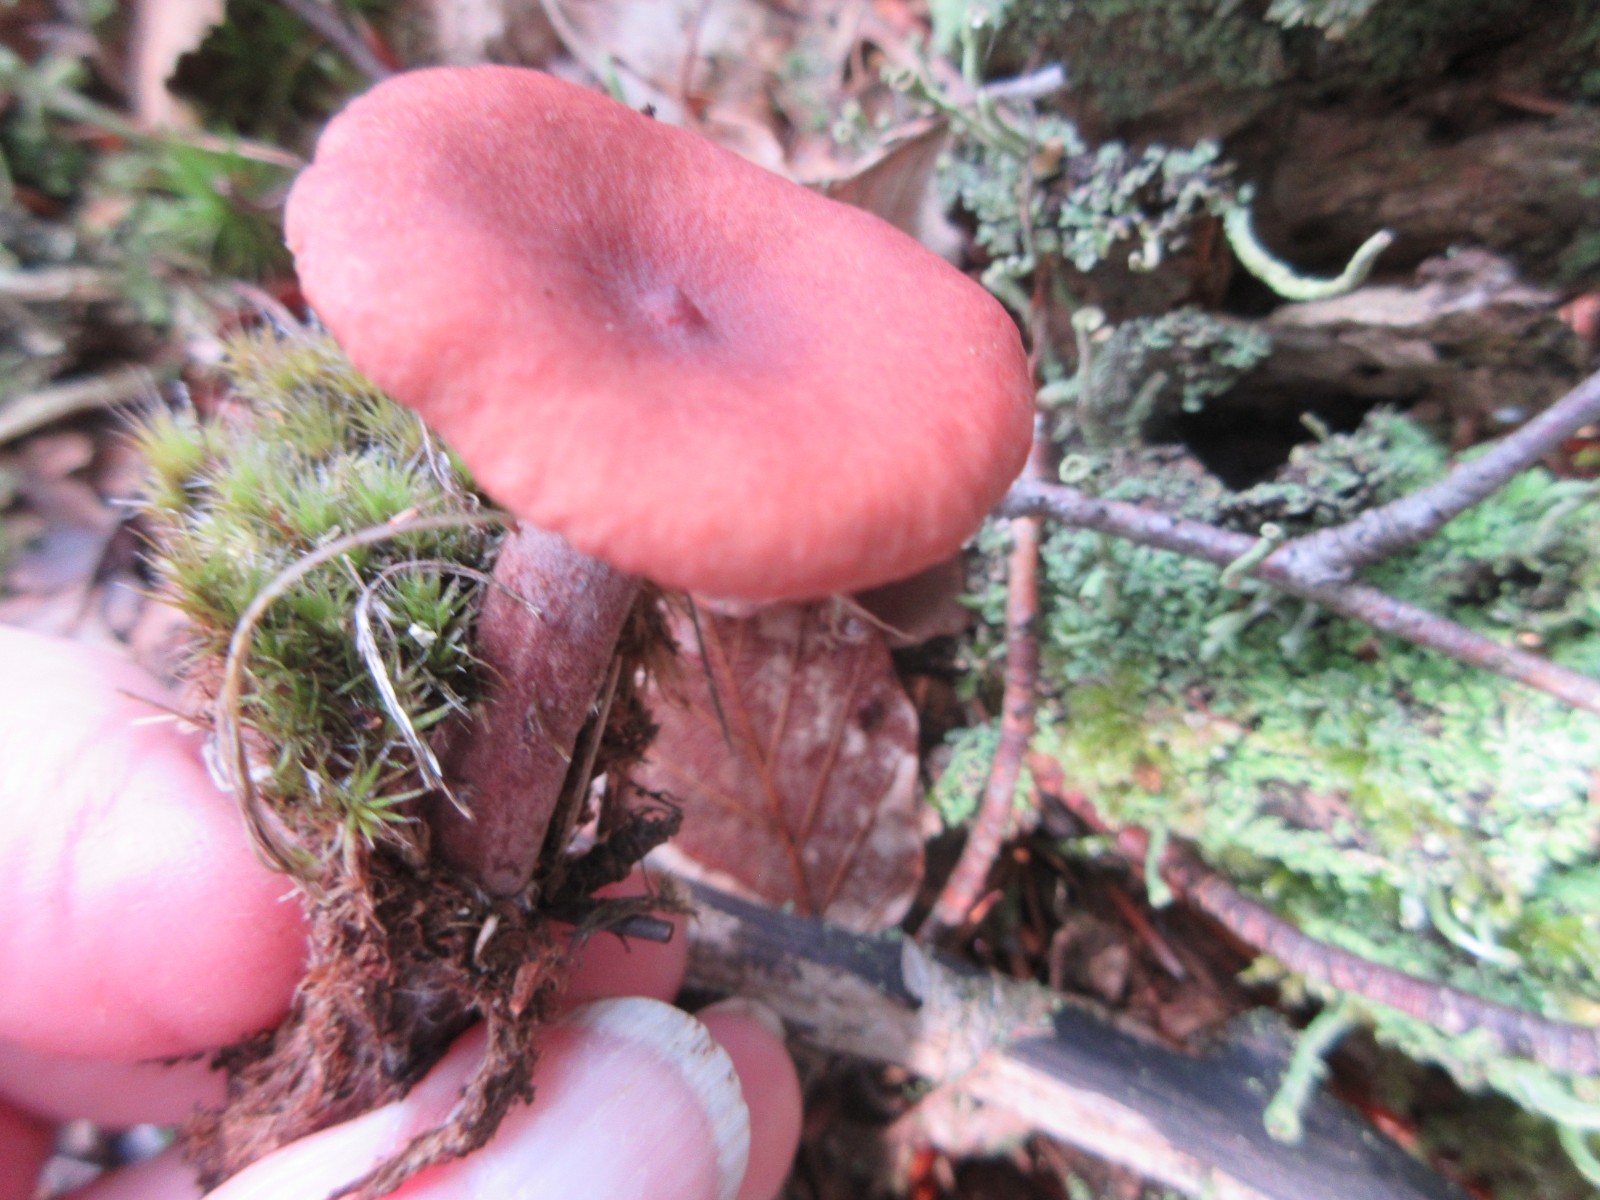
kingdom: Fungi
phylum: Basidiomycota
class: Agaricomycetes
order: Russulales
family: Russulaceae
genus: Lactarius
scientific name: Lactarius camphoratus
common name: kamfer-mælkehat
